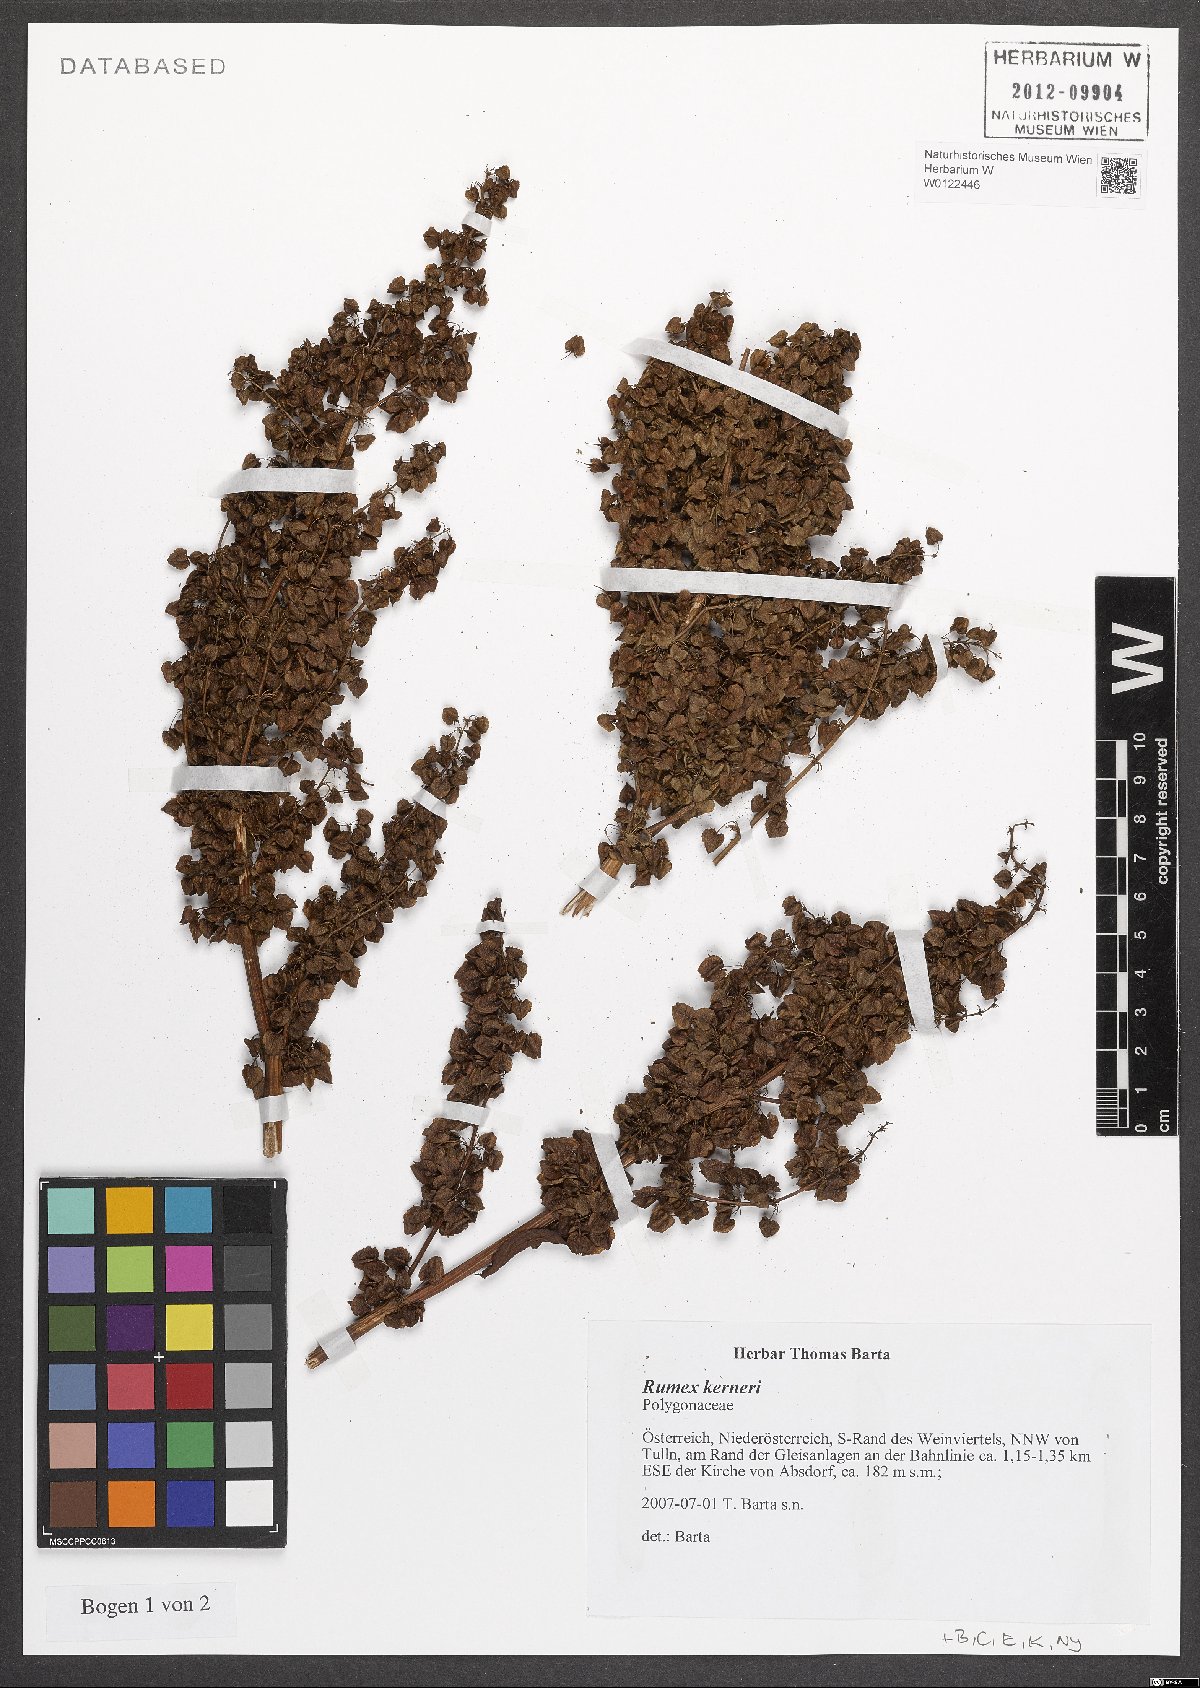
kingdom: Plantae
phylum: Tracheophyta
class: Magnoliopsida
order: Caryophyllales
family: Polygonaceae
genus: Rumex
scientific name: Rumex kerneri
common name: Kerner's dock
